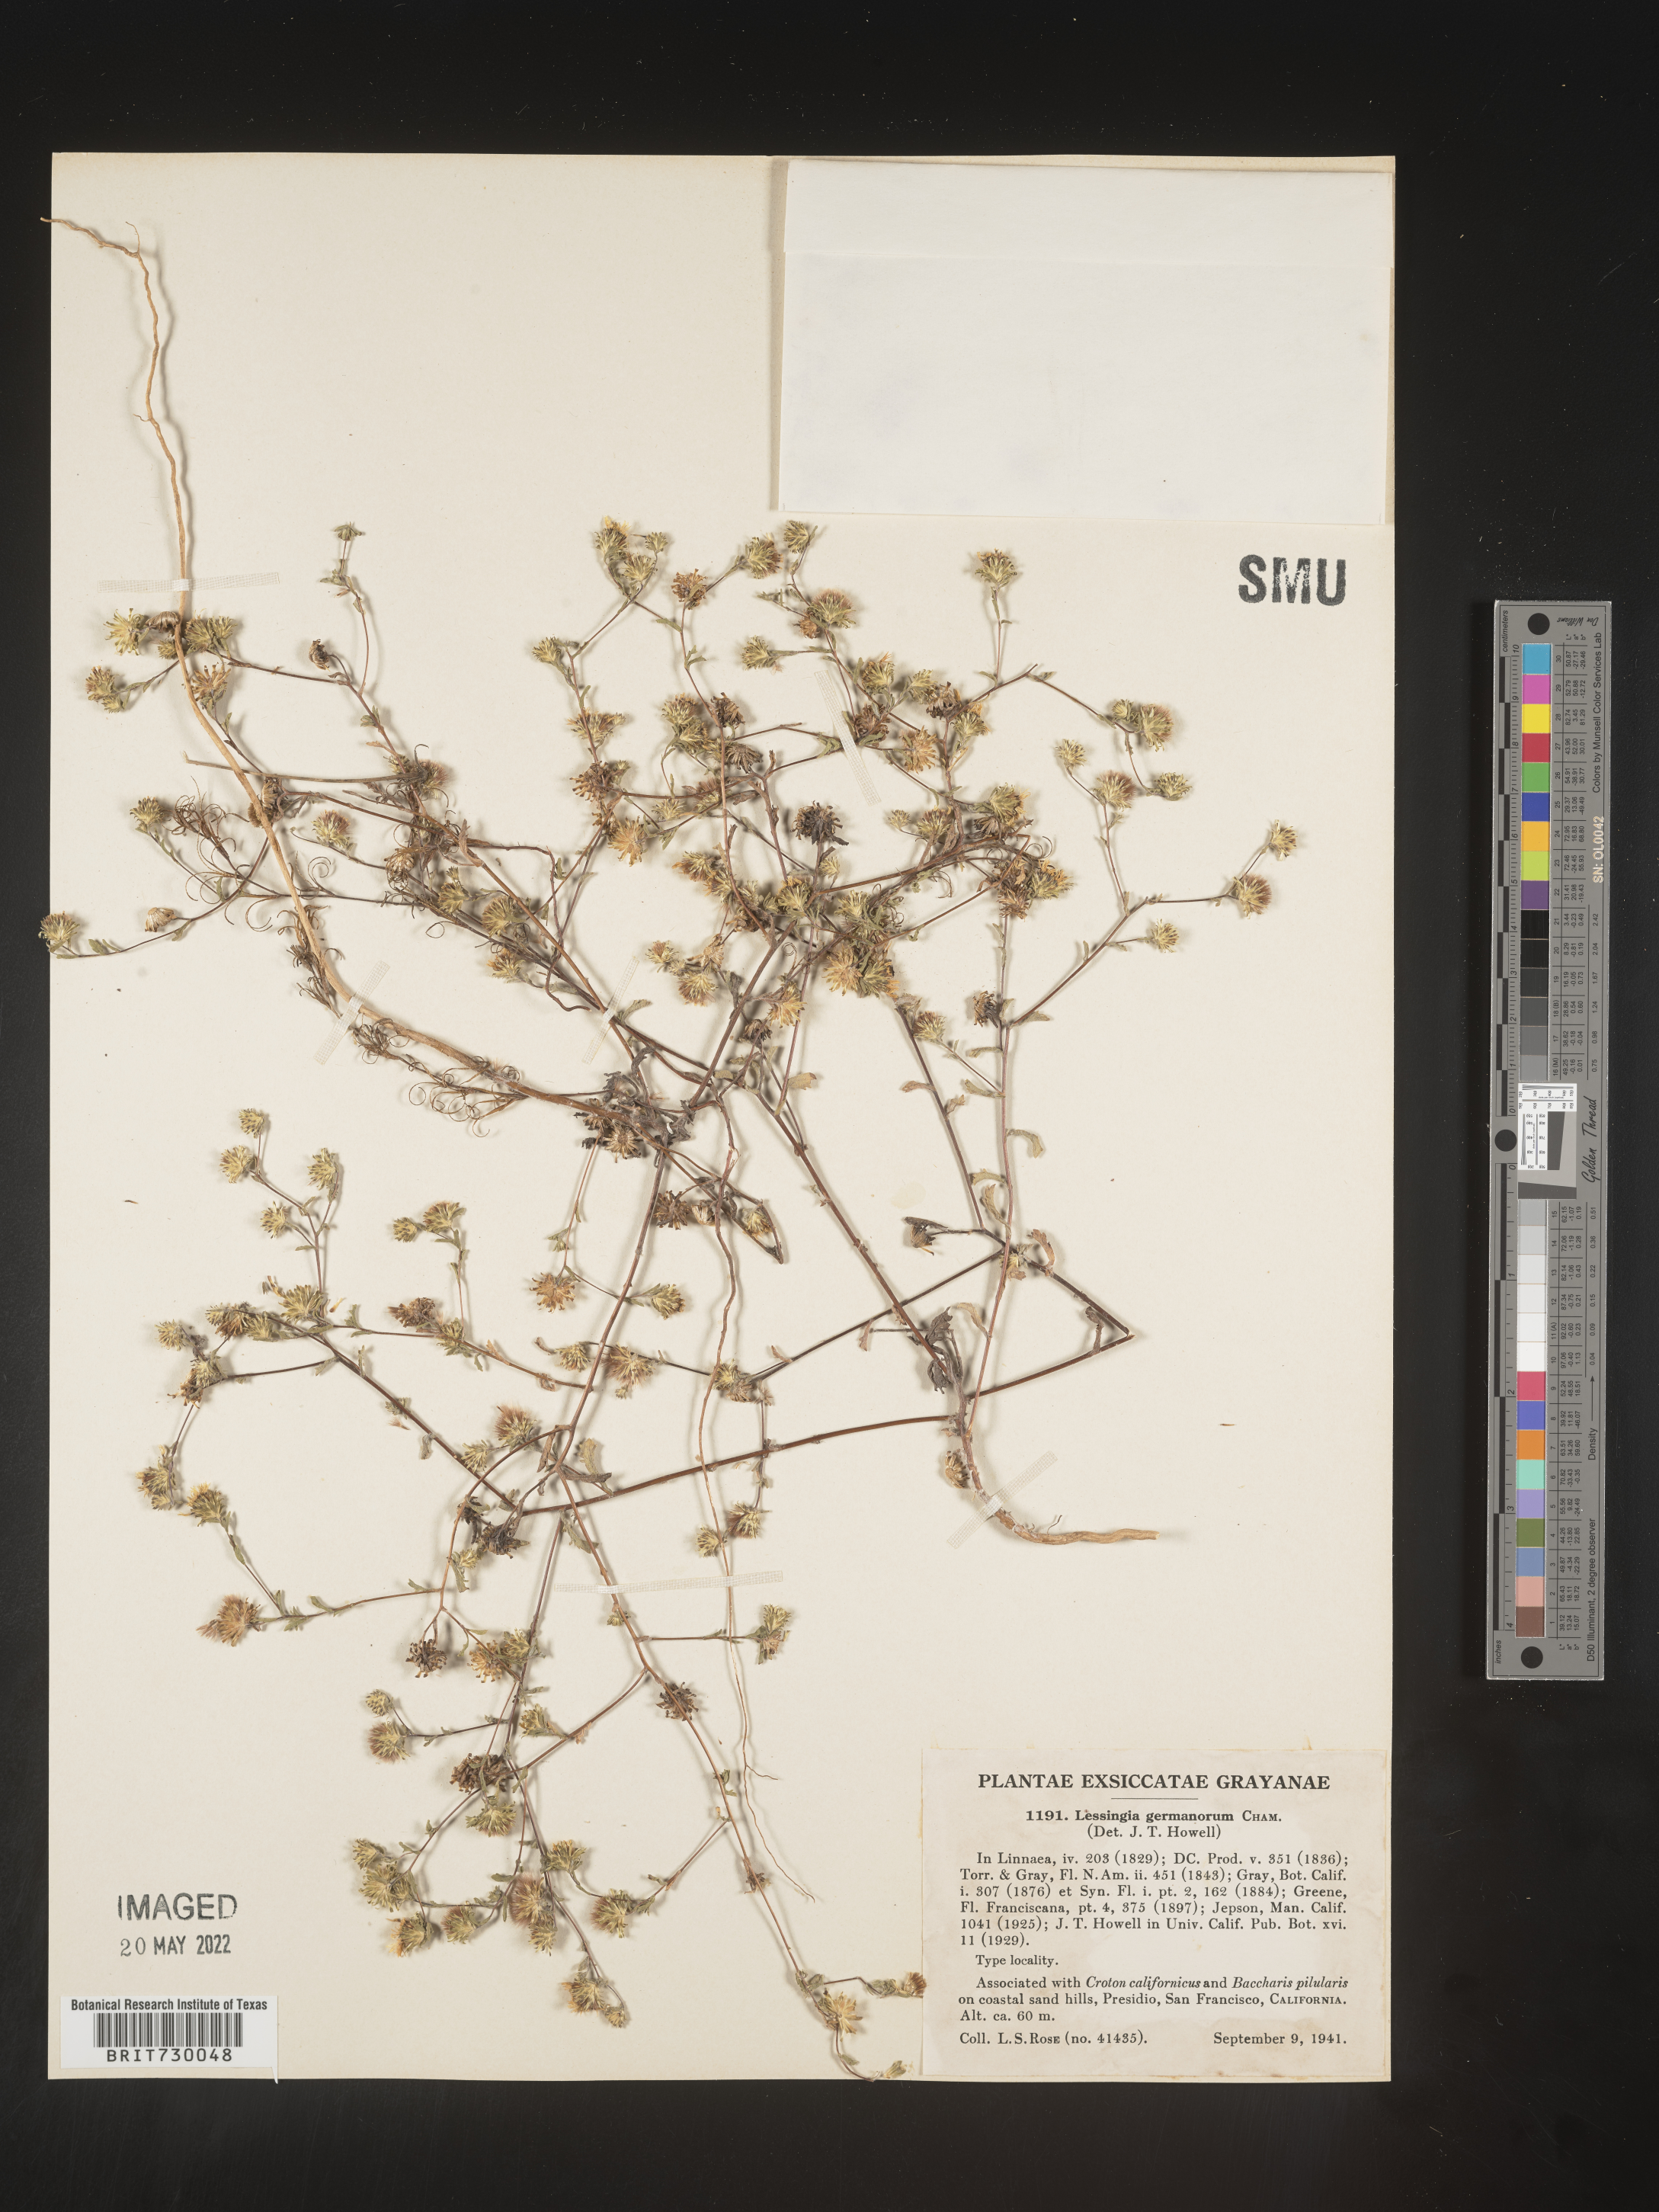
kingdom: Plantae
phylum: Tracheophyta
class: Magnoliopsida
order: Asterales
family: Asteraceae
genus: Lessingia
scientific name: Lessingia
